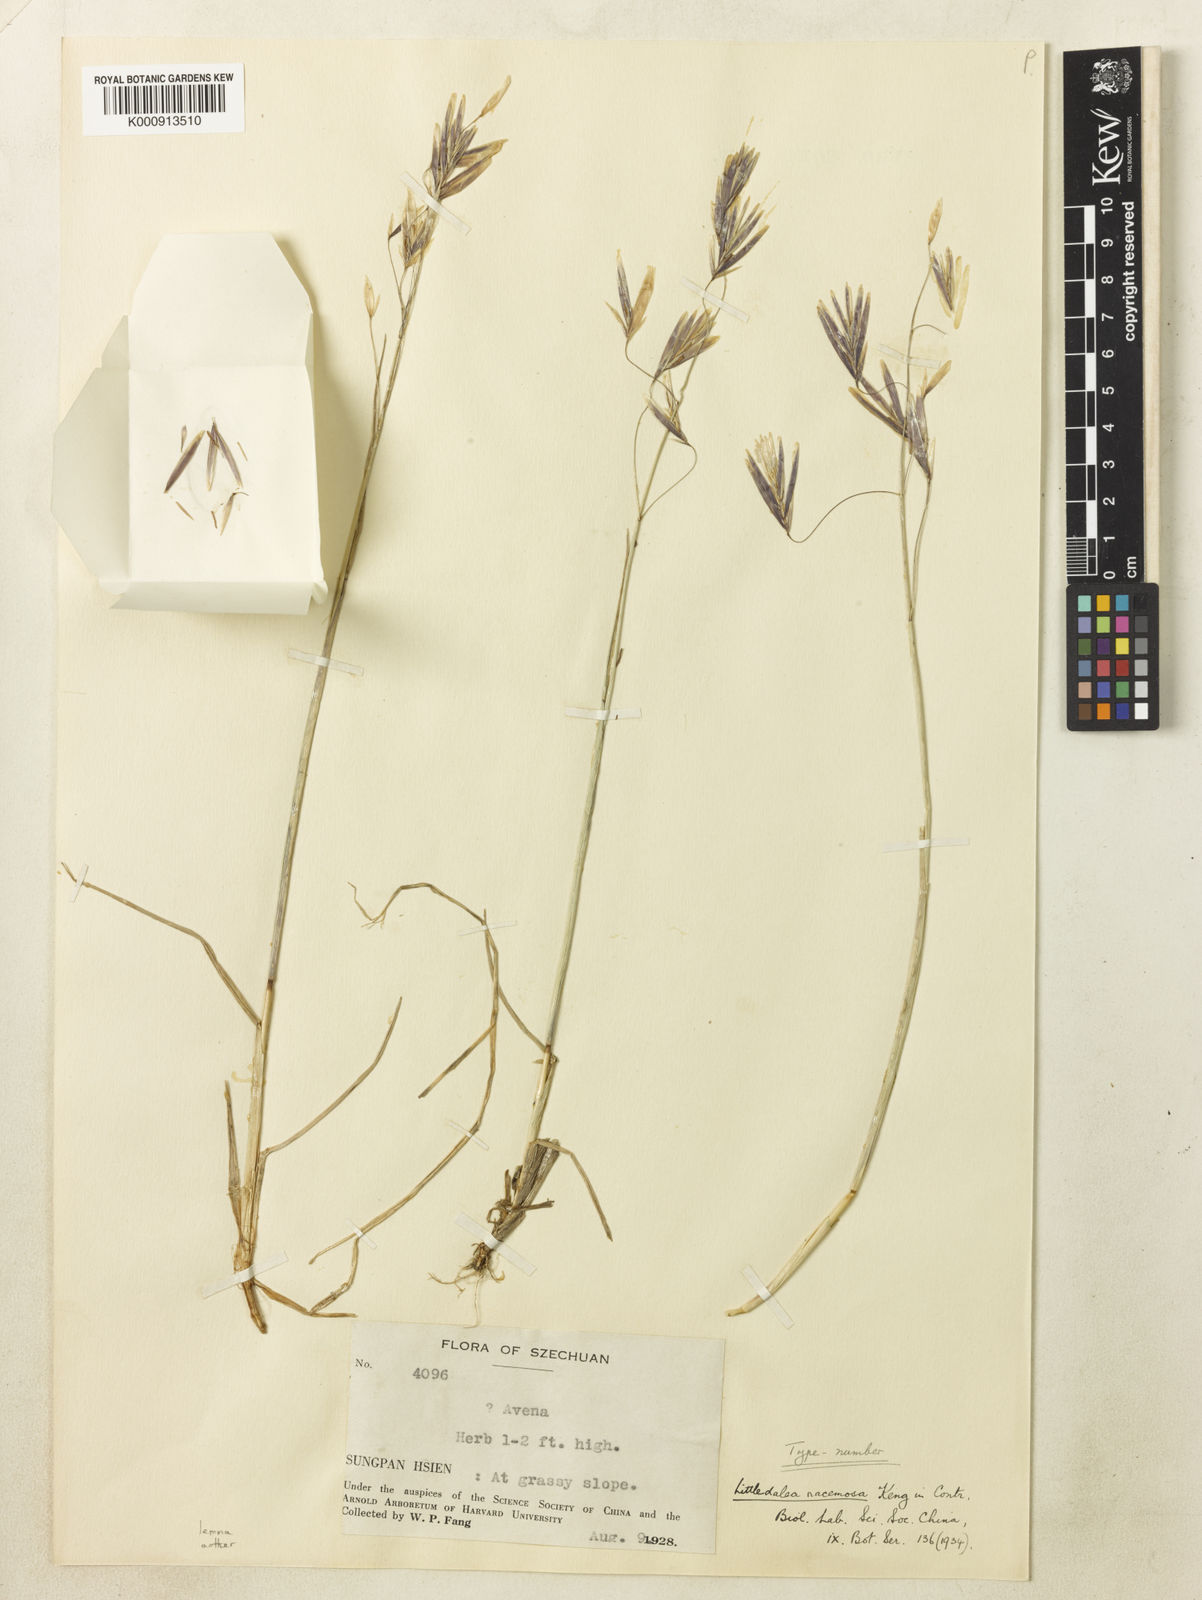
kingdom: Plantae
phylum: Tracheophyta
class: Liliopsida
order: Poales
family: Poaceae
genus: Littledalea
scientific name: Littledalea racemosa
